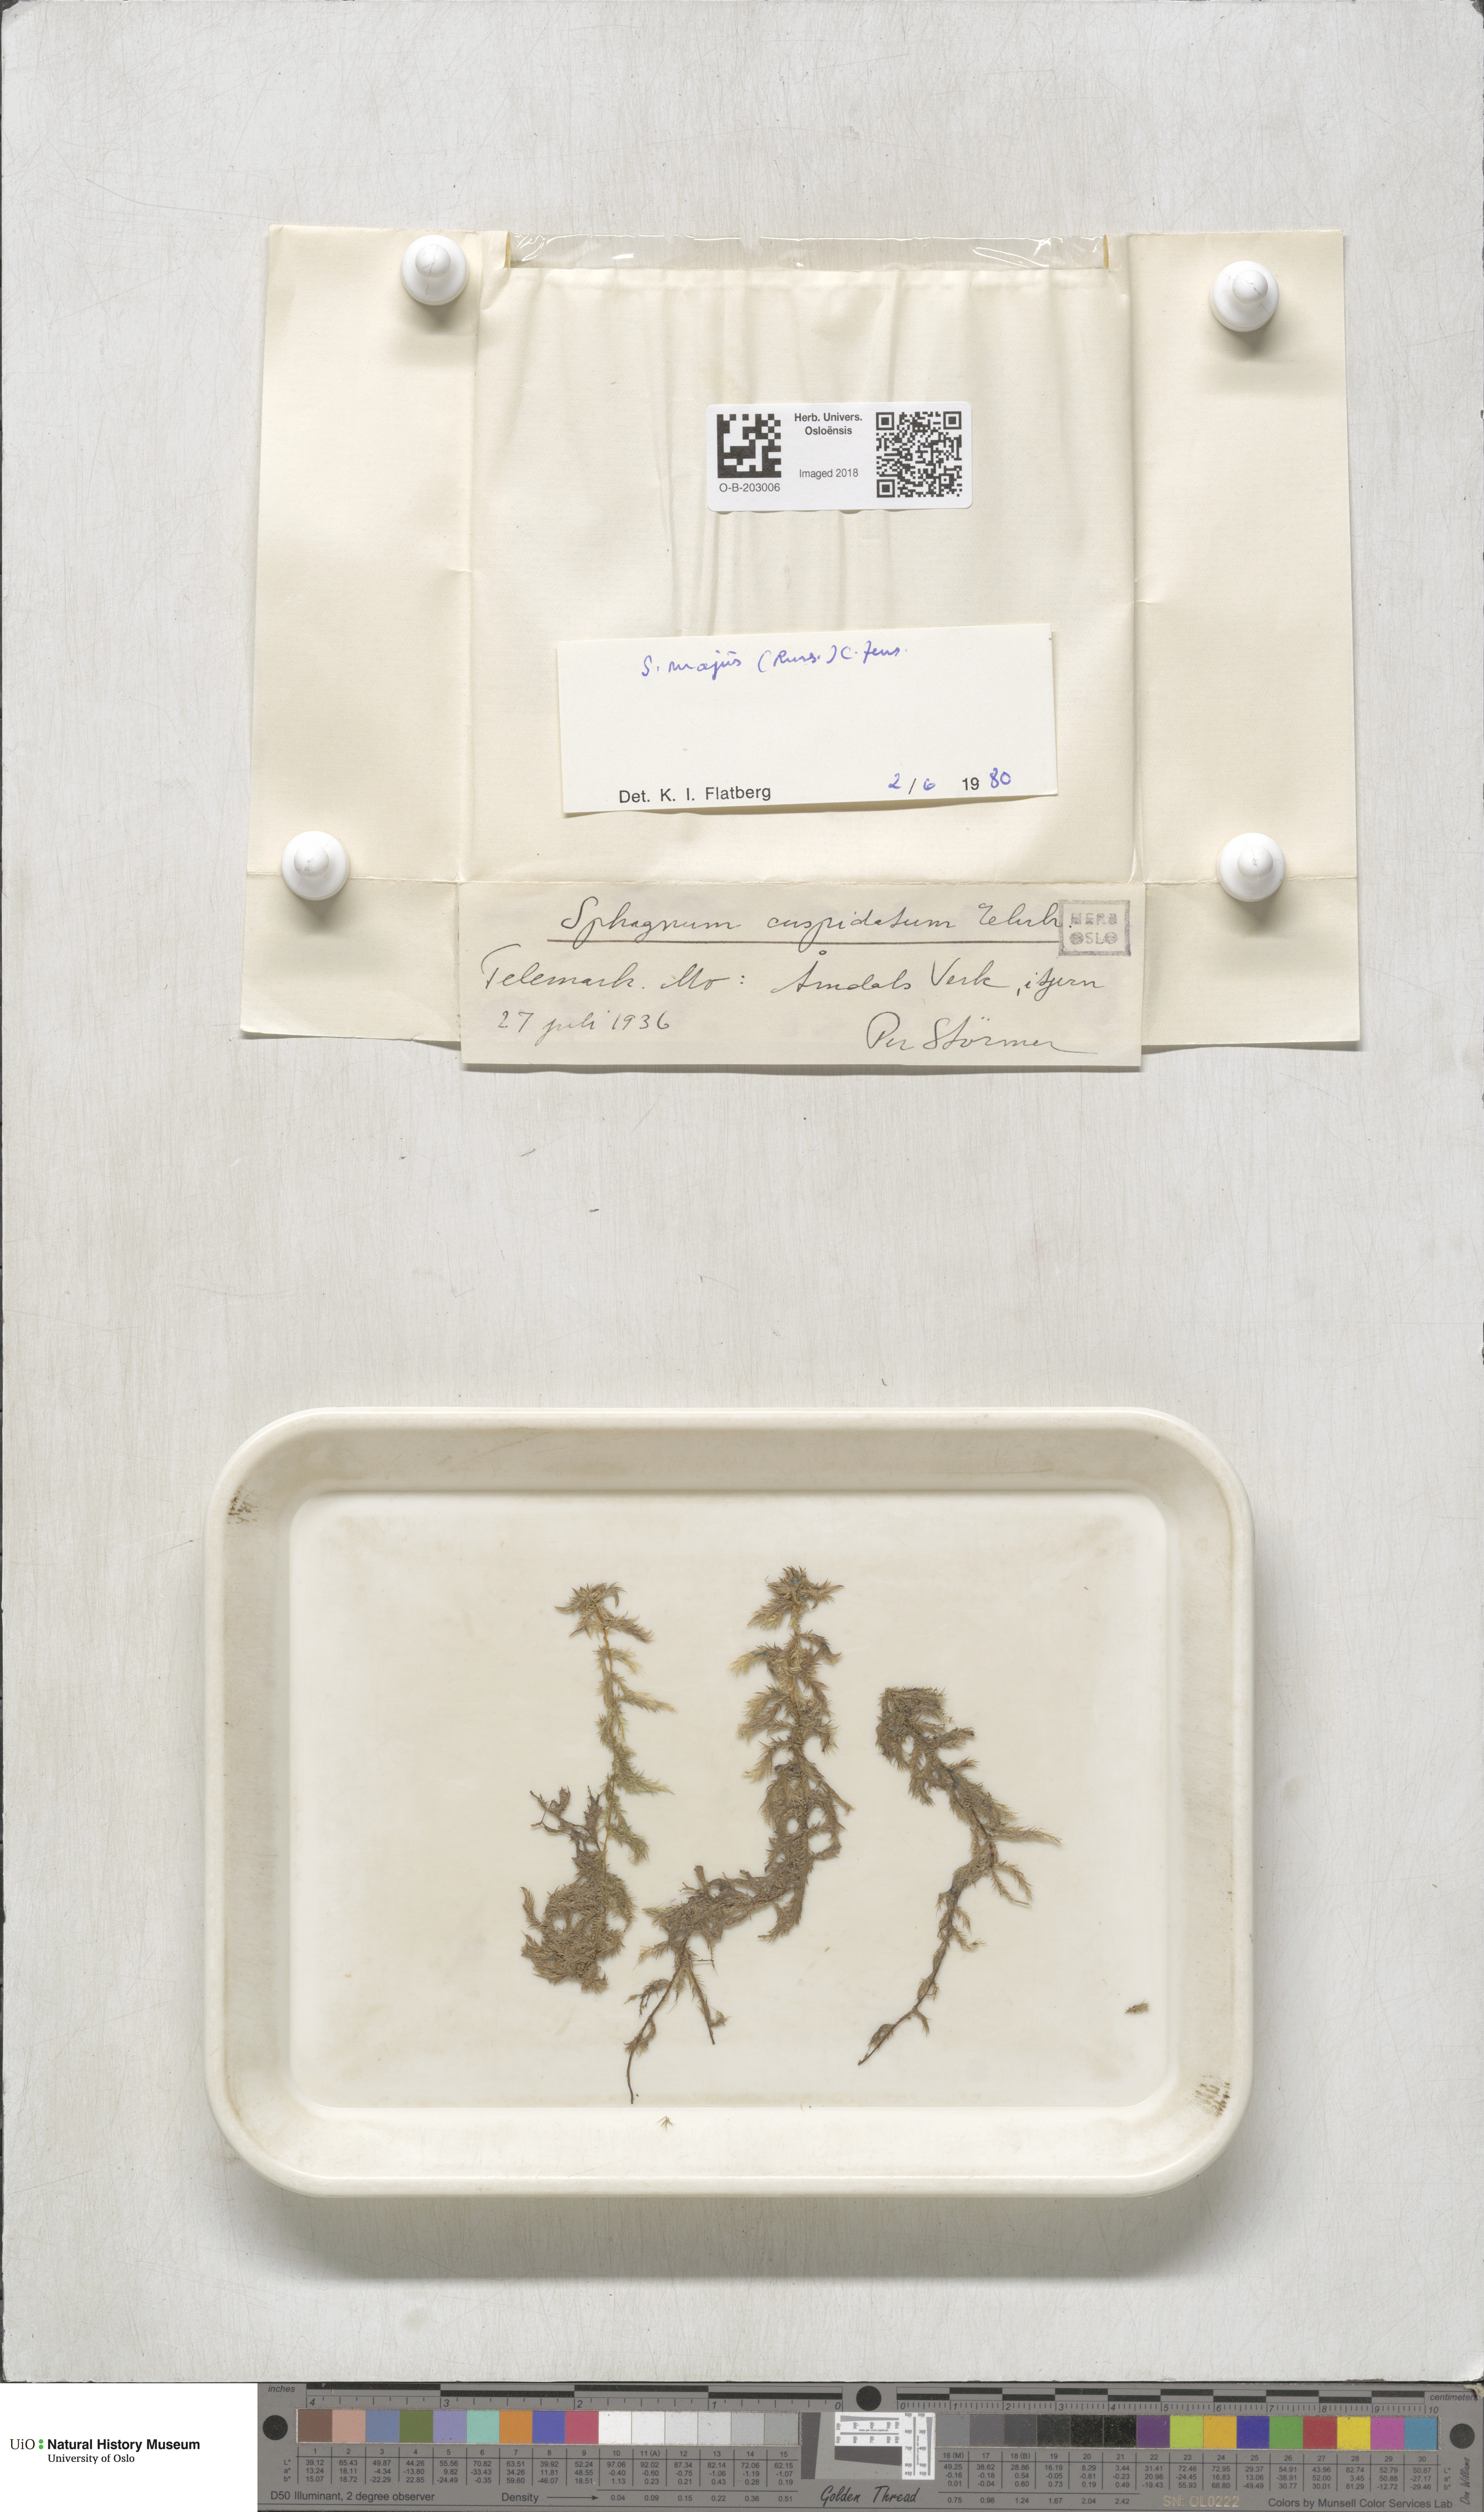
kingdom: Plantae
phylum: Bryophyta
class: Sphagnopsida
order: Sphagnales
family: Sphagnaceae
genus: Sphagnum
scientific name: Sphagnum majus
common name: Olive bog-moss
